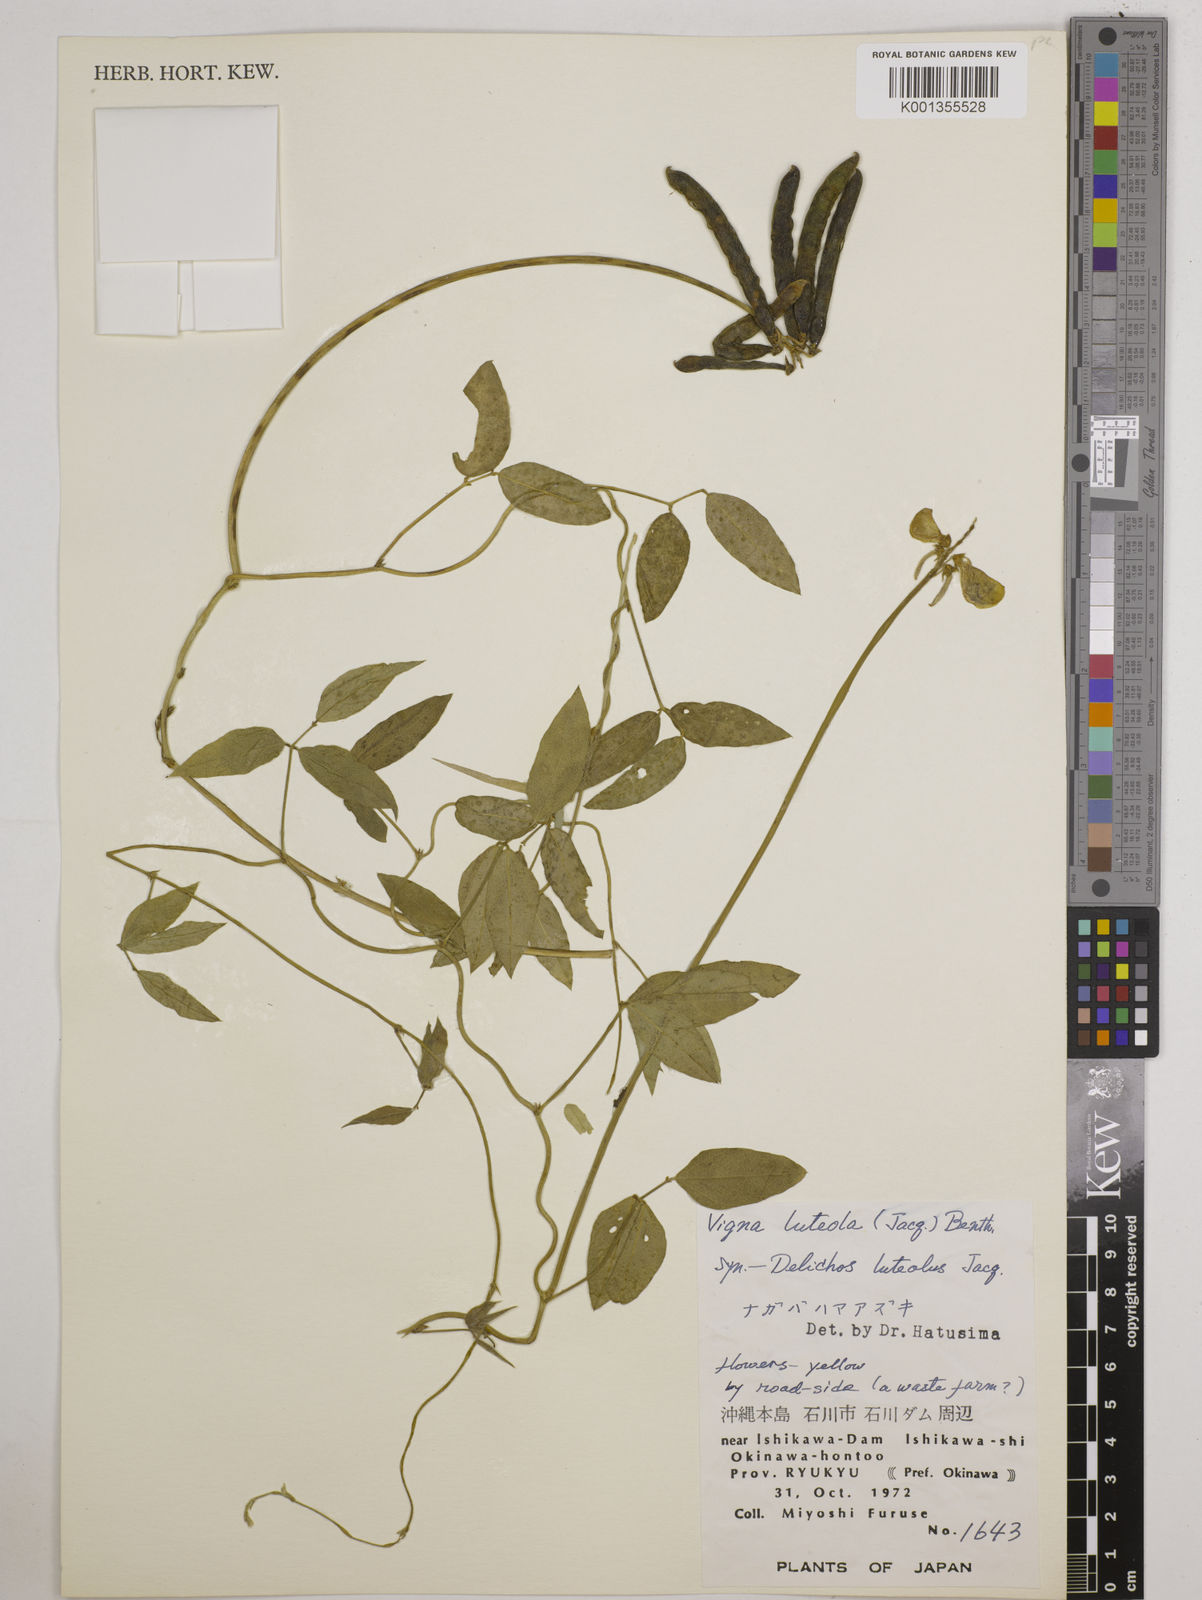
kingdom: Plantae
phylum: Tracheophyta
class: Magnoliopsida
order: Fabales
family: Fabaceae
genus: Vigna
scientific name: Vigna luteola
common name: Hairypod cowpea
